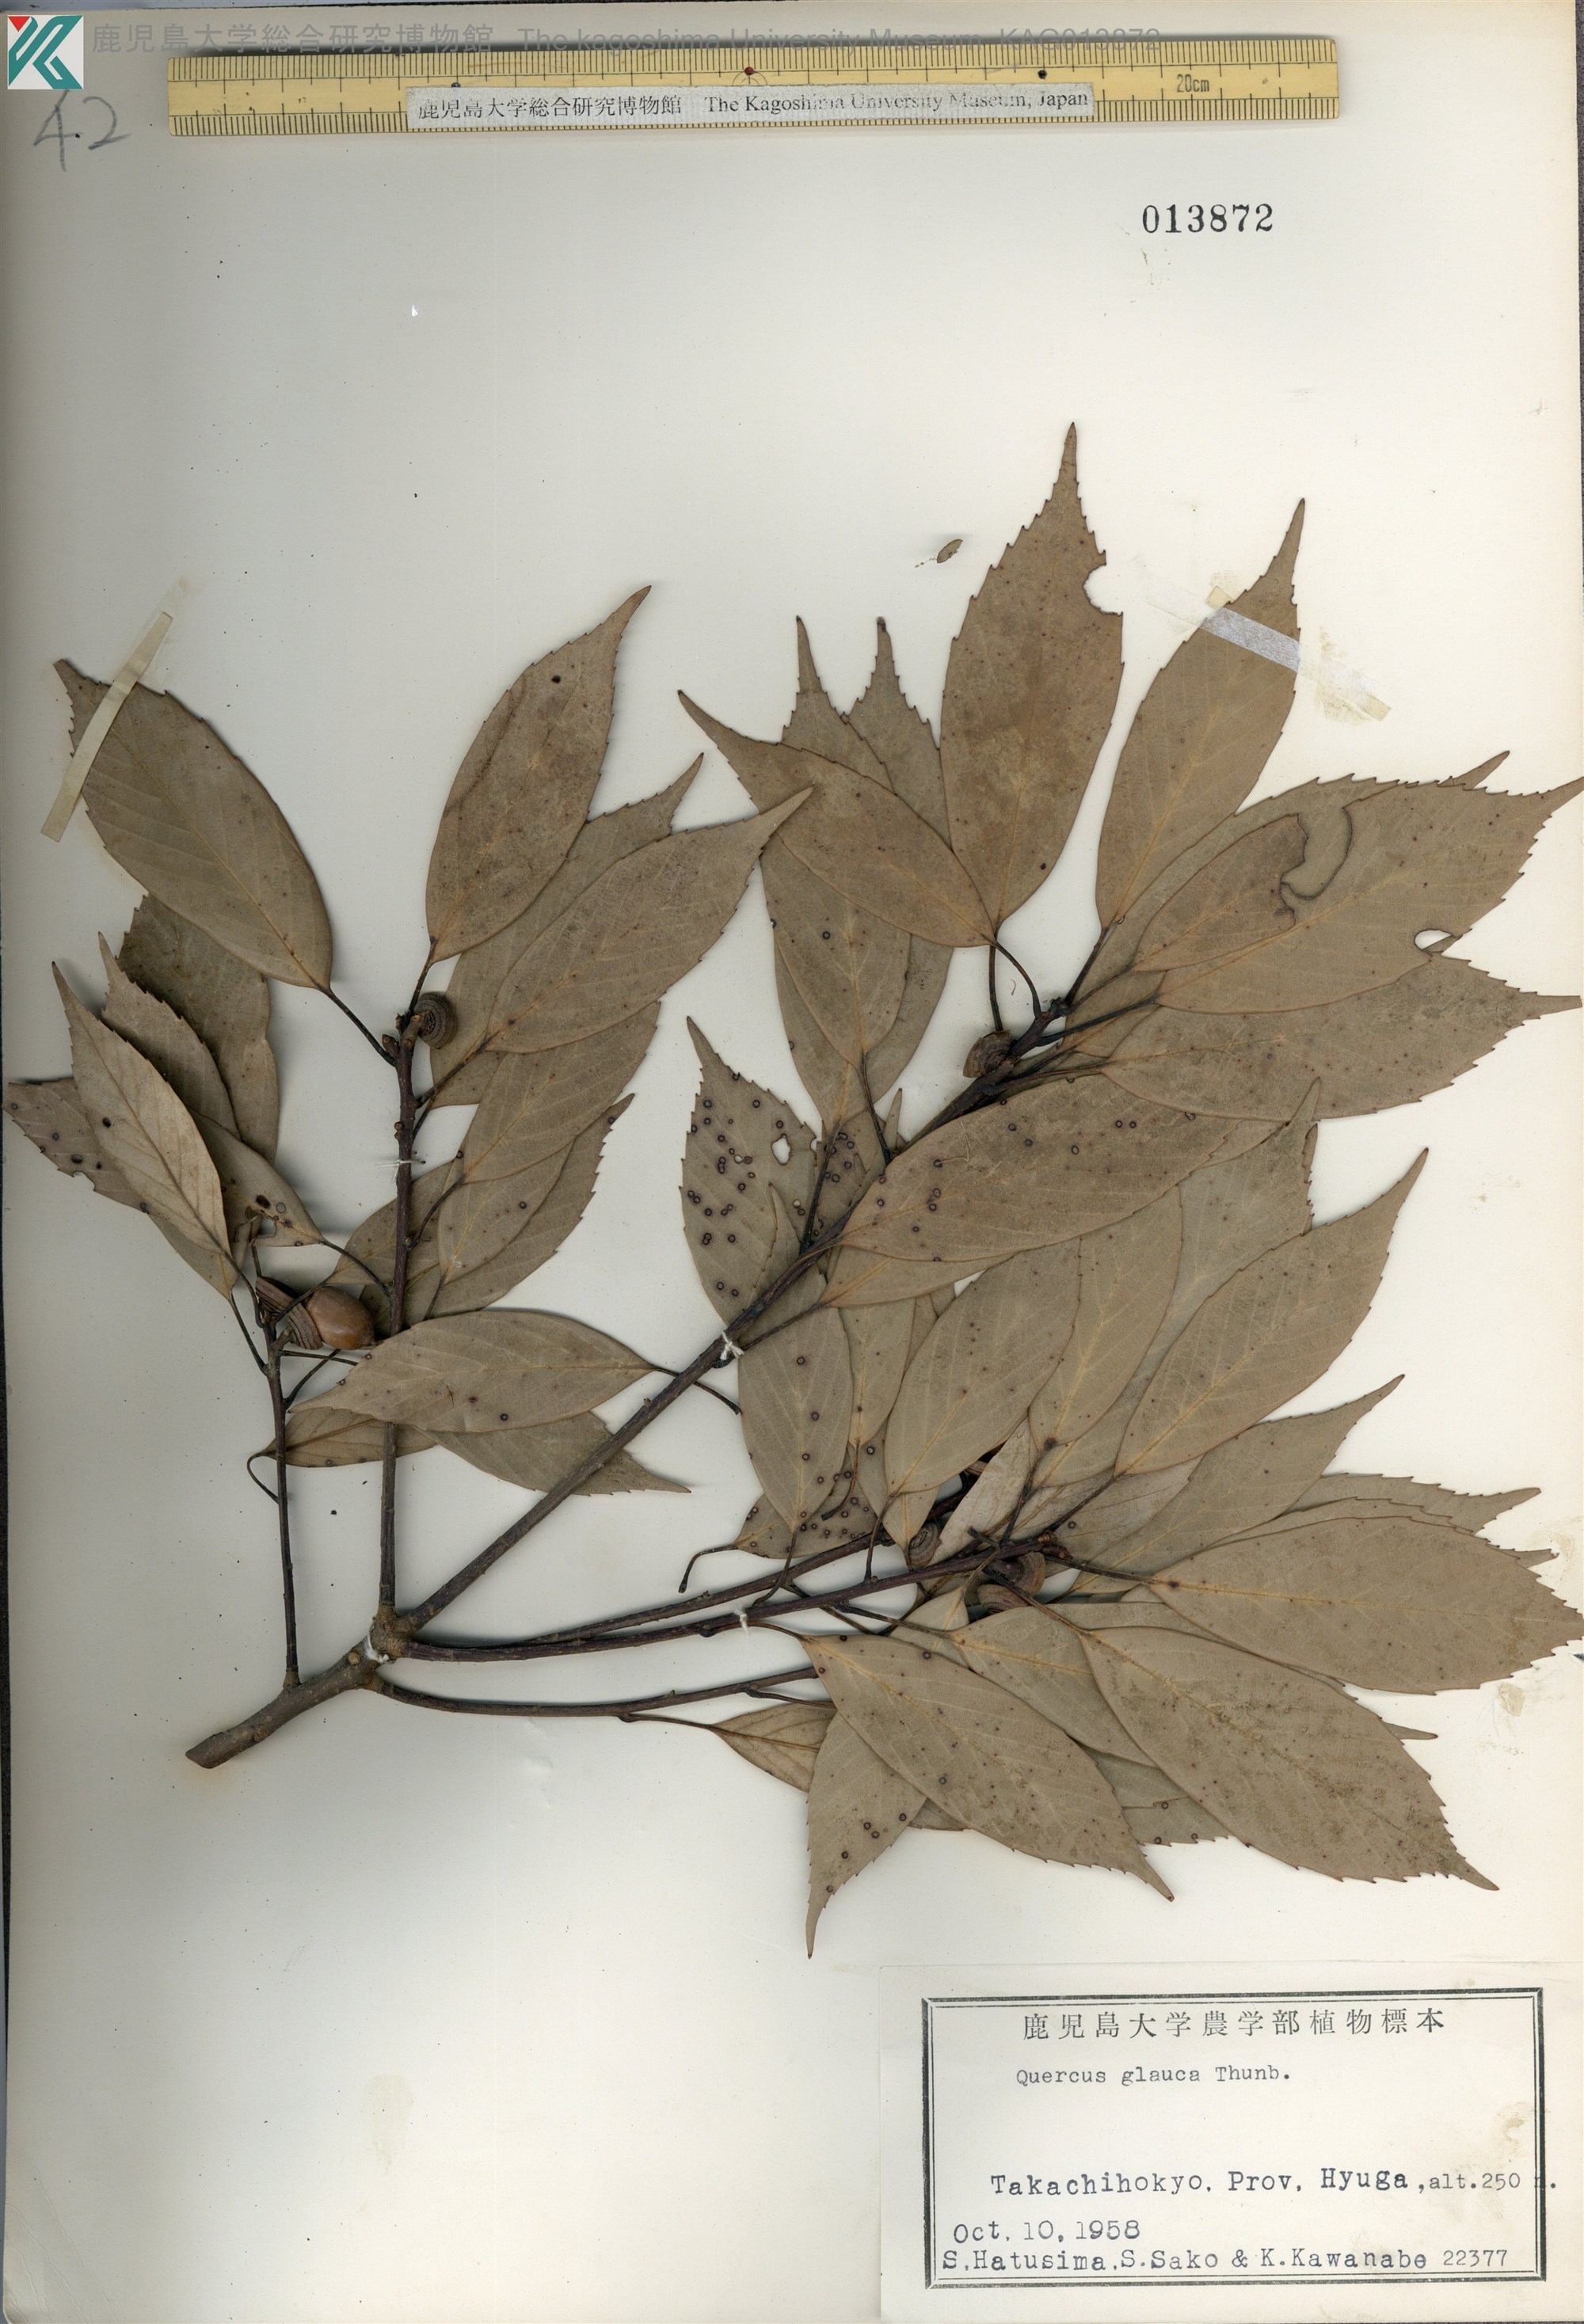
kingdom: Plantae
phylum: Tracheophyta
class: Magnoliopsida
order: Fagales
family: Fagaceae
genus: Quercus
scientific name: Quercus glauca
